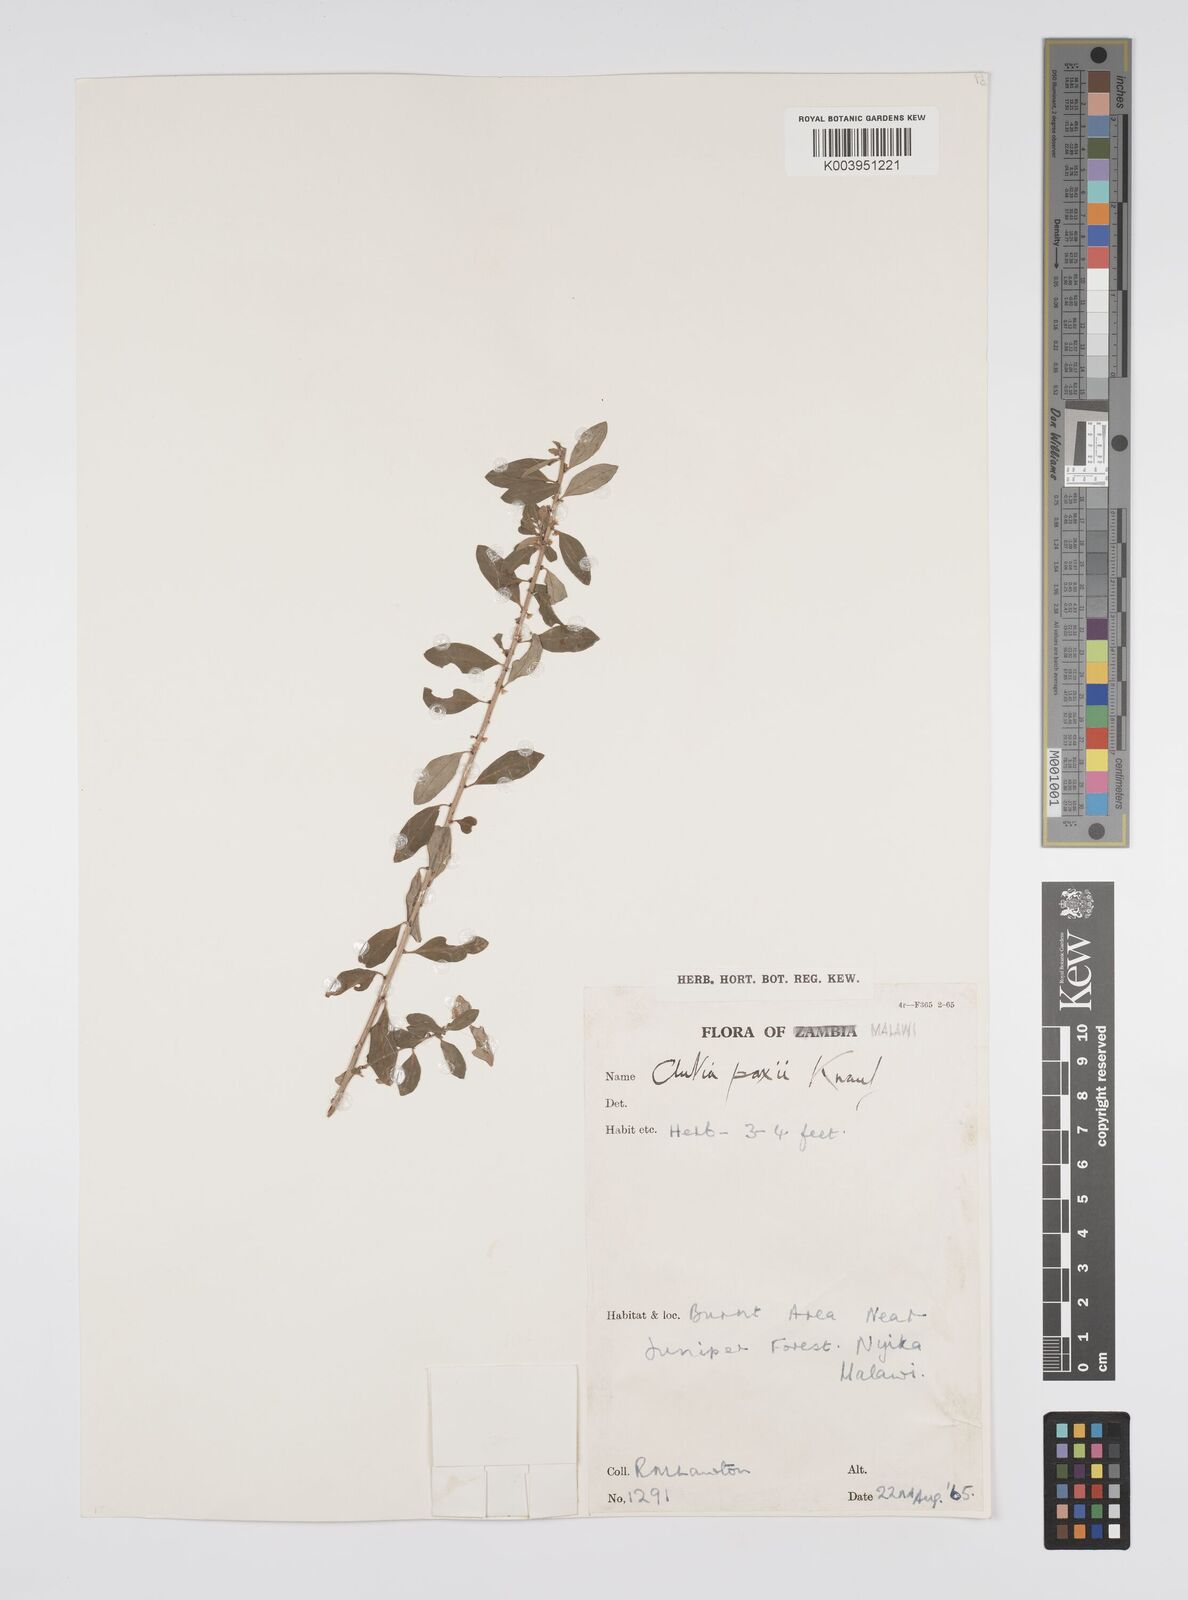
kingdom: Plantae
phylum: Tracheophyta
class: Magnoliopsida
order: Malpighiales
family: Peraceae
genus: Clutia
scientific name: Clutia paxii
